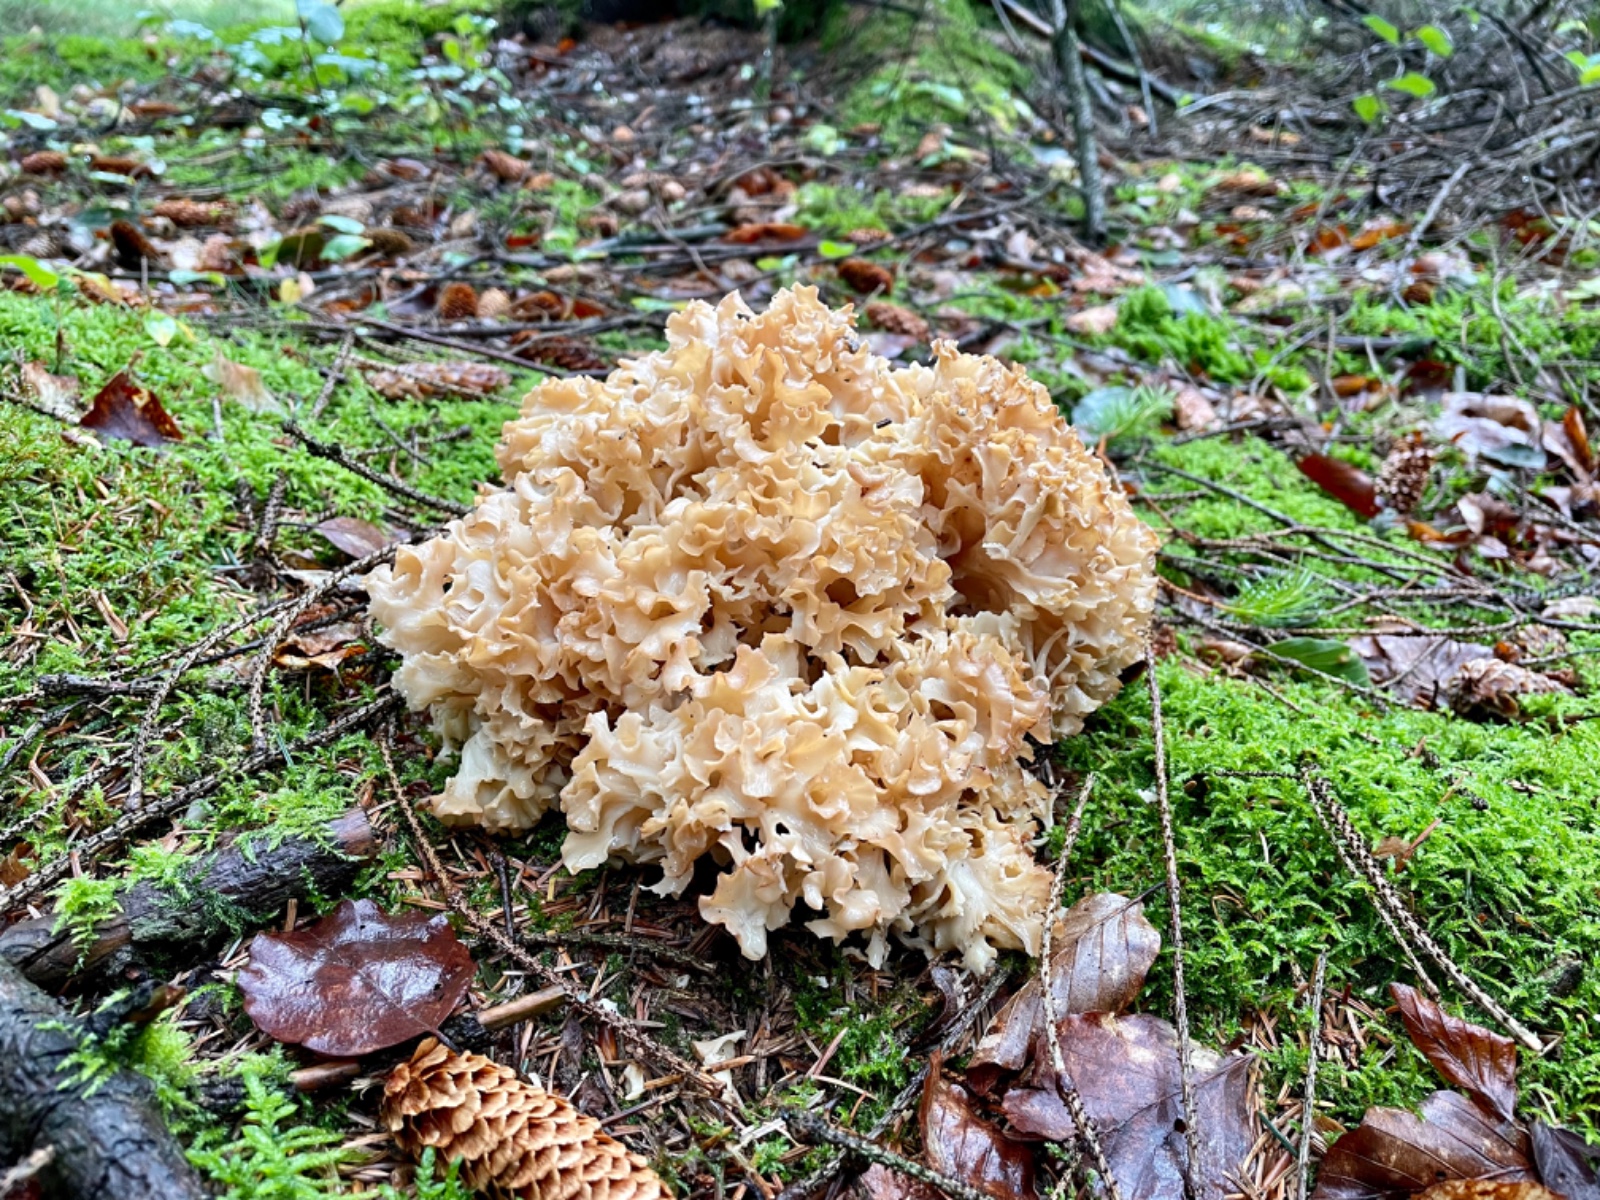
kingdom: Fungi
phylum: Basidiomycota
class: Agaricomycetes
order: Polyporales
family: Sparassidaceae
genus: Sparassis
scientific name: Sparassis crispa
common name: kruset blomkålssvamp
